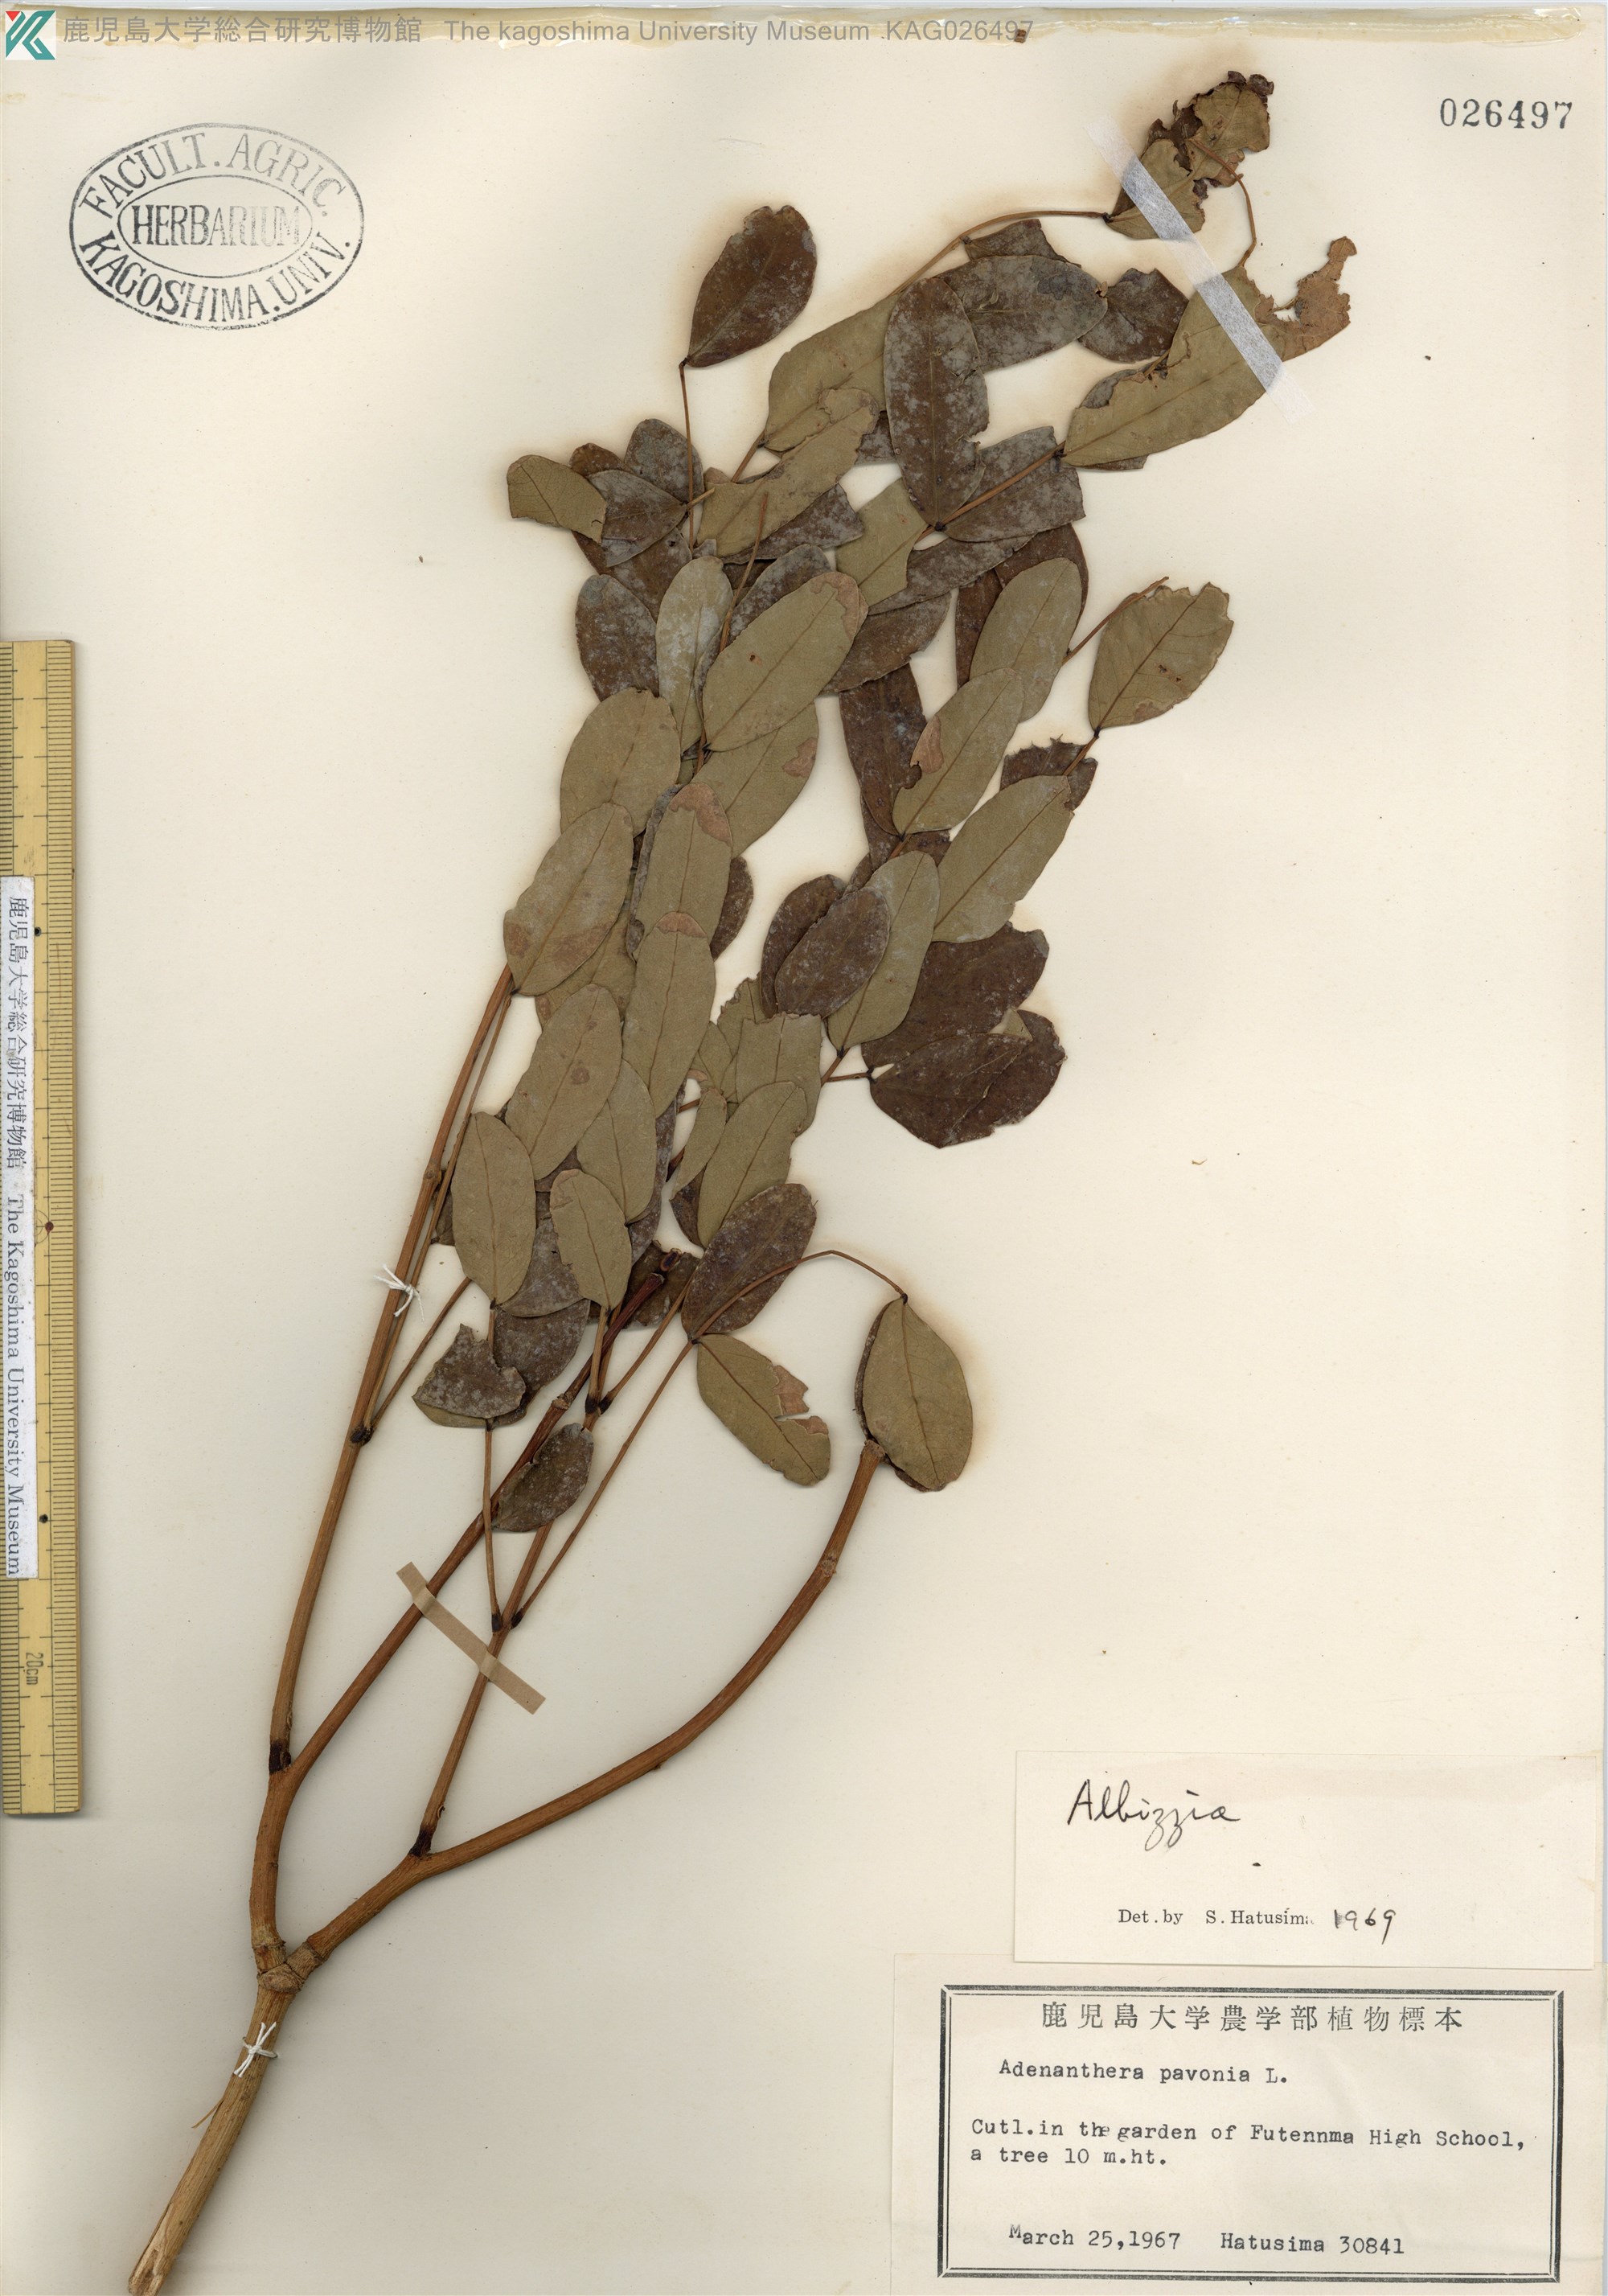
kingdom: Plantae
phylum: Tracheophyta
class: Magnoliopsida
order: Fabales
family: Fabaceae
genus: Adenanthera
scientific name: Adenanthera pavonina
